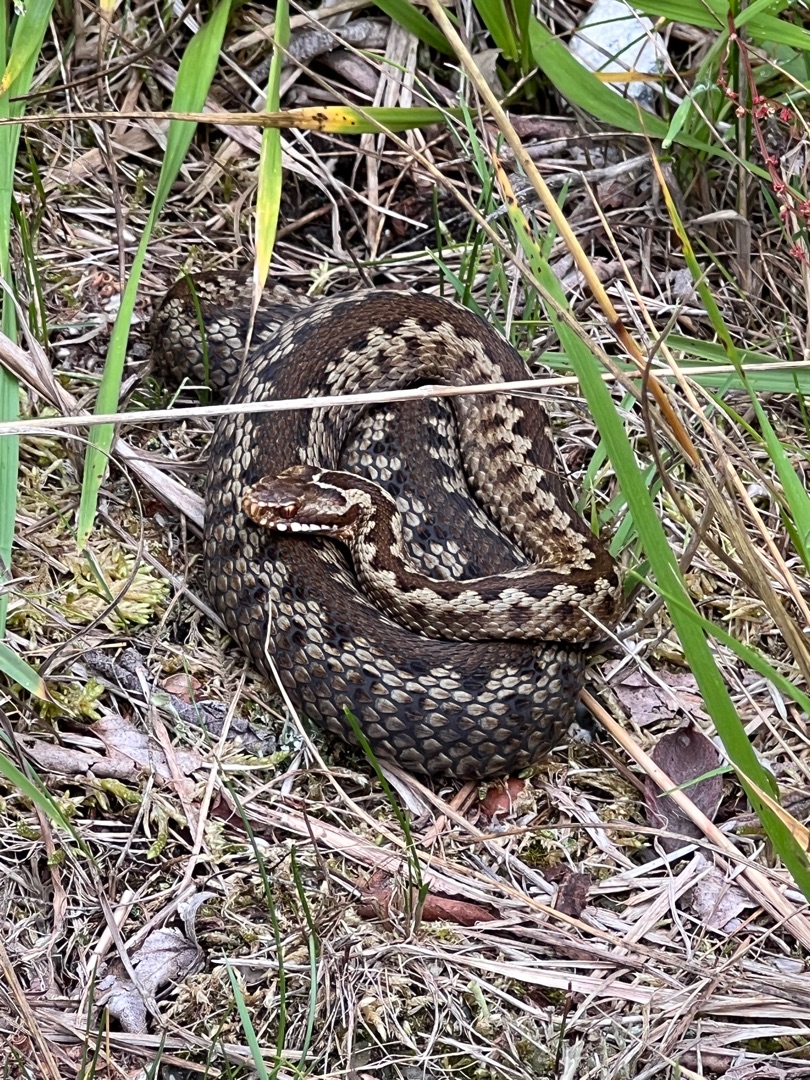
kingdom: Animalia
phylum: Chordata
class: Squamata
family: Viperidae
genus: Vipera
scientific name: Vipera berus
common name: Hugorm
